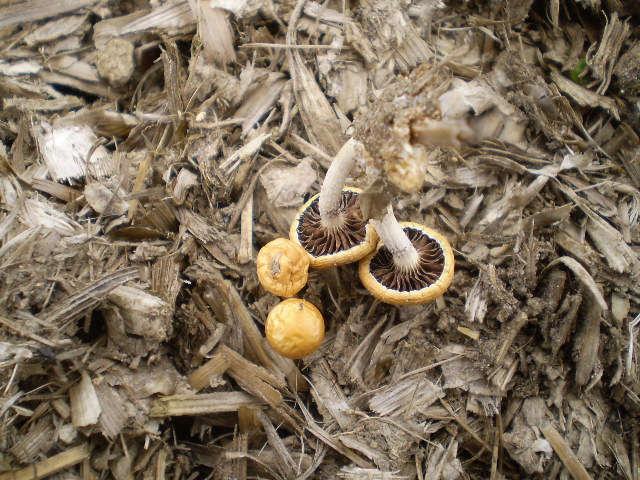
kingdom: Fungi
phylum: Basidiomycota
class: Agaricomycetes
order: Agaricales
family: Strophariaceae
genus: Leratiomyces
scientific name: Leratiomyces percevalii
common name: træflis-bredblad
